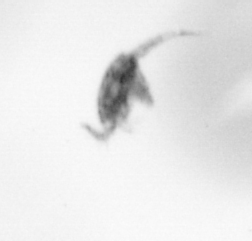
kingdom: Animalia
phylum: Arthropoda
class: Copepoda
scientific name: Copepoda
